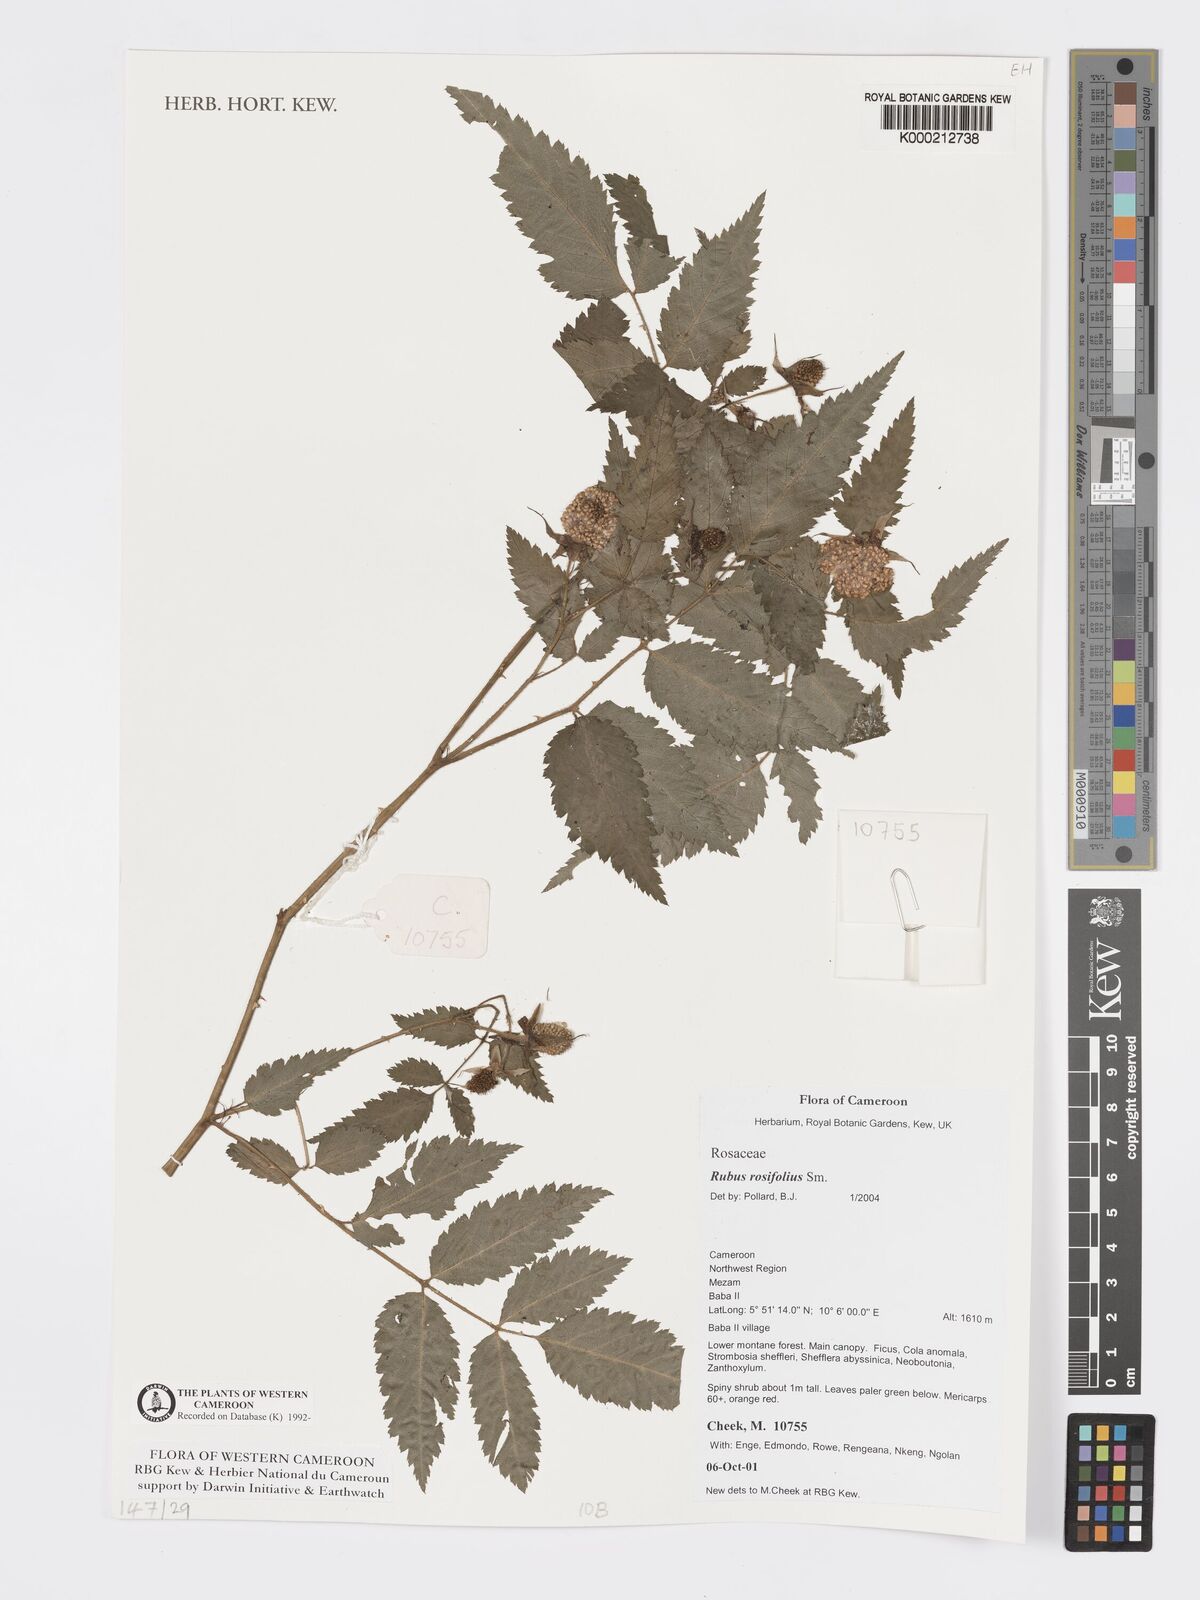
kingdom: Plantae
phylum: Tracheophyta
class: Magnoliopsida
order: Rosales
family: Rosaceae
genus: Rubus
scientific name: Rubus rosifolius
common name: Roseleaf raspberry
